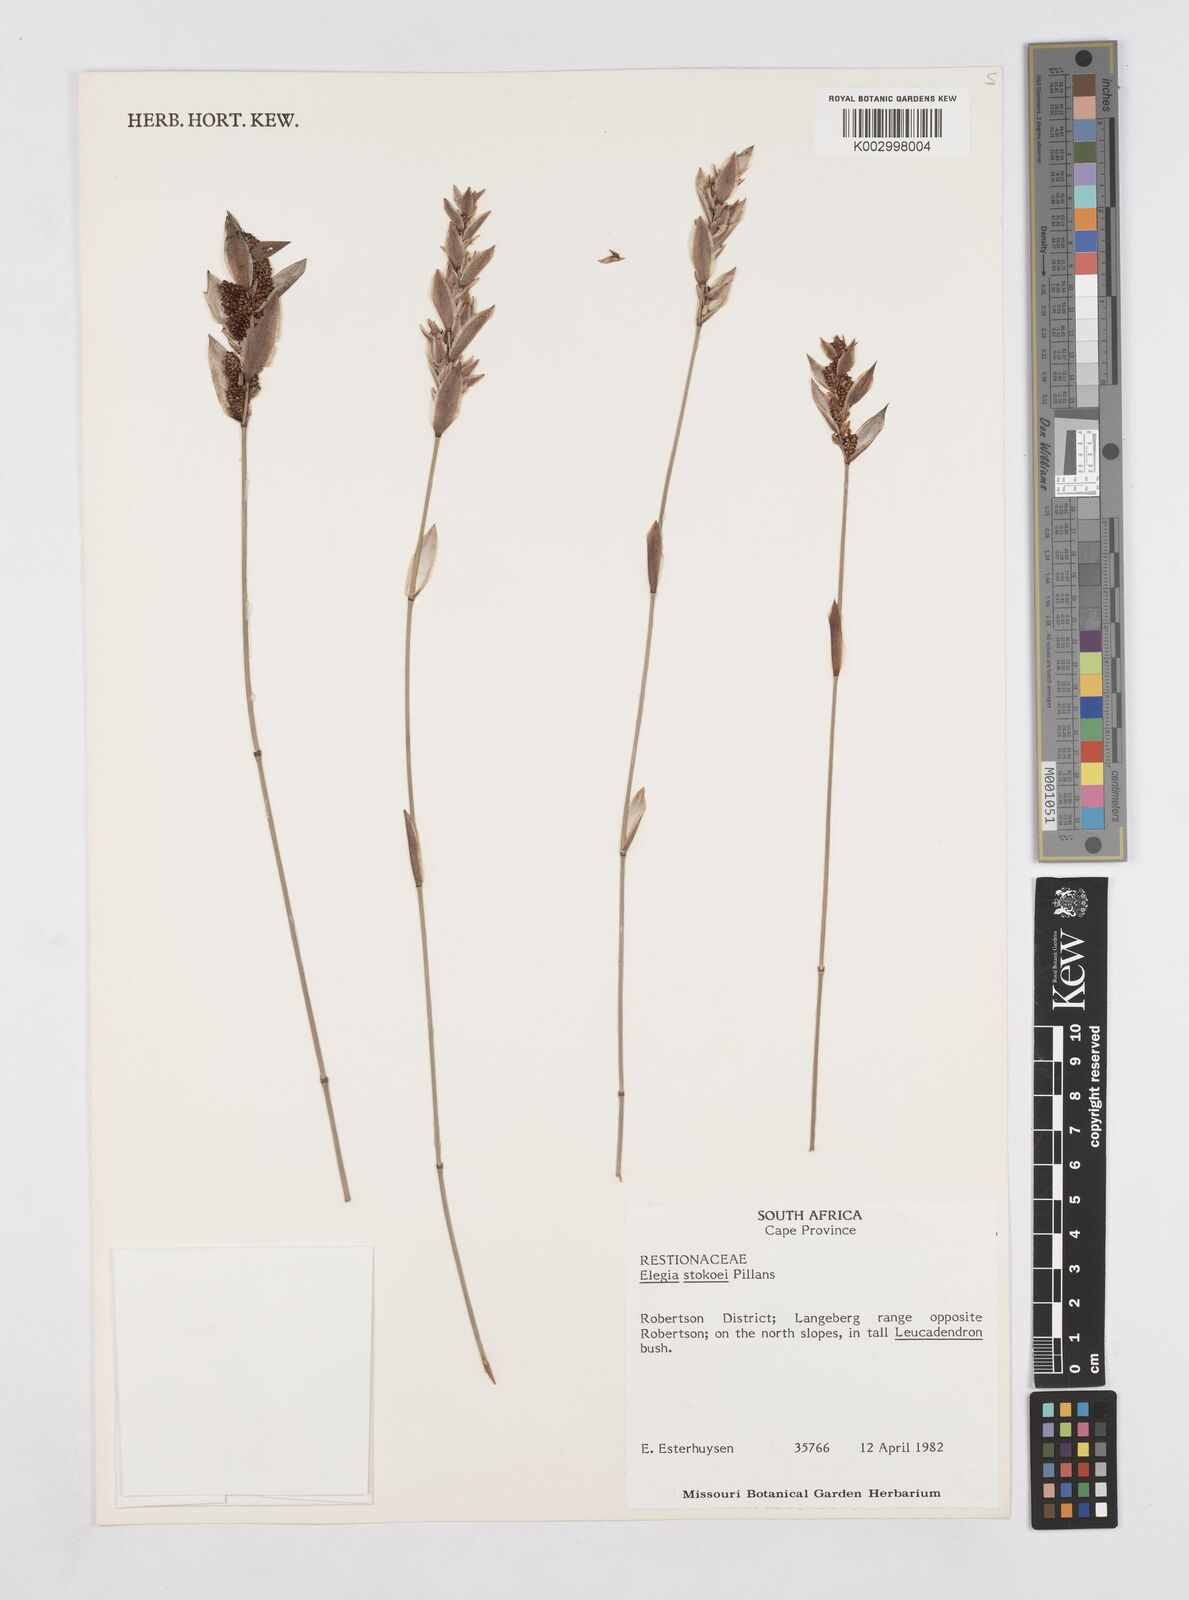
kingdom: Plantae
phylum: Tracheophyta
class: Liliopsida
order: Poales
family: Restionaceae
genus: Elegia
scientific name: Elegia stokoei
